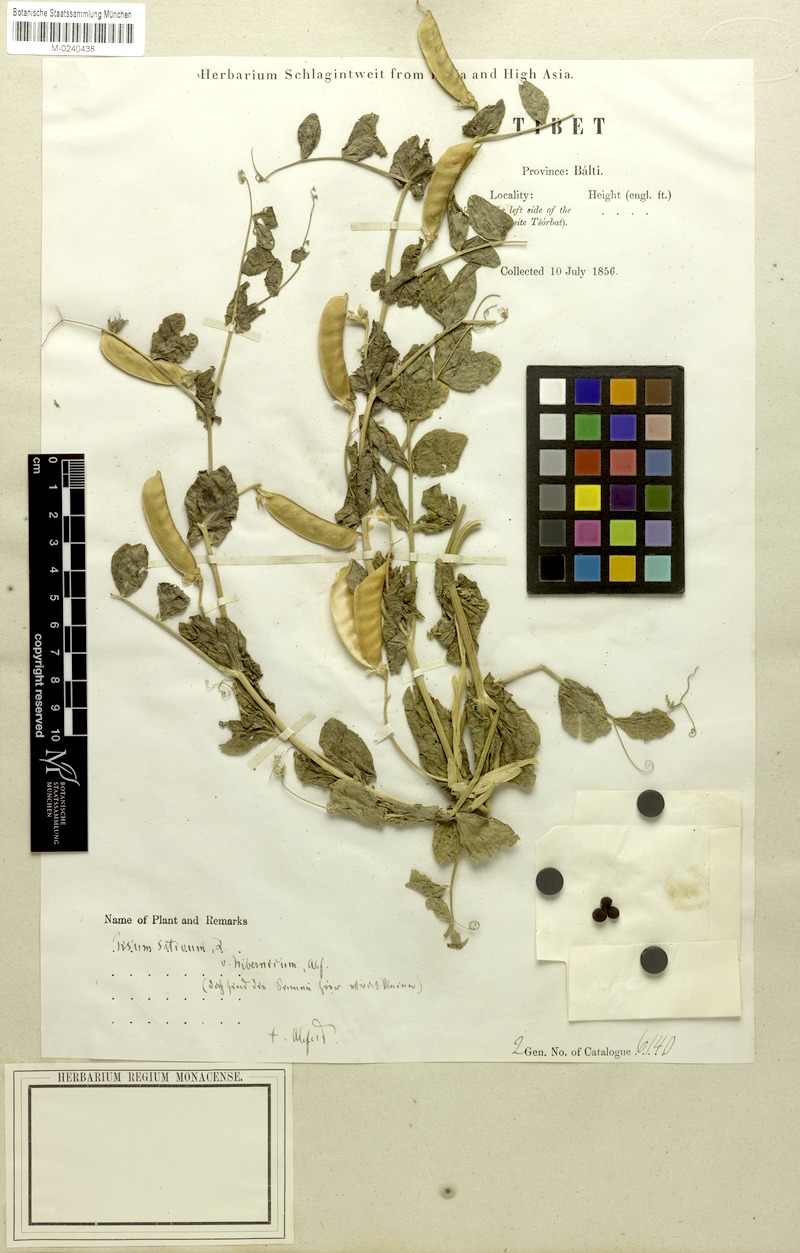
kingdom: Plantae
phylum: Tracheophyta
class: Magnoliopsida
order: Fabales
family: Fabaceae
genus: Lathyrus
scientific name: Lathyrus oleraceus
